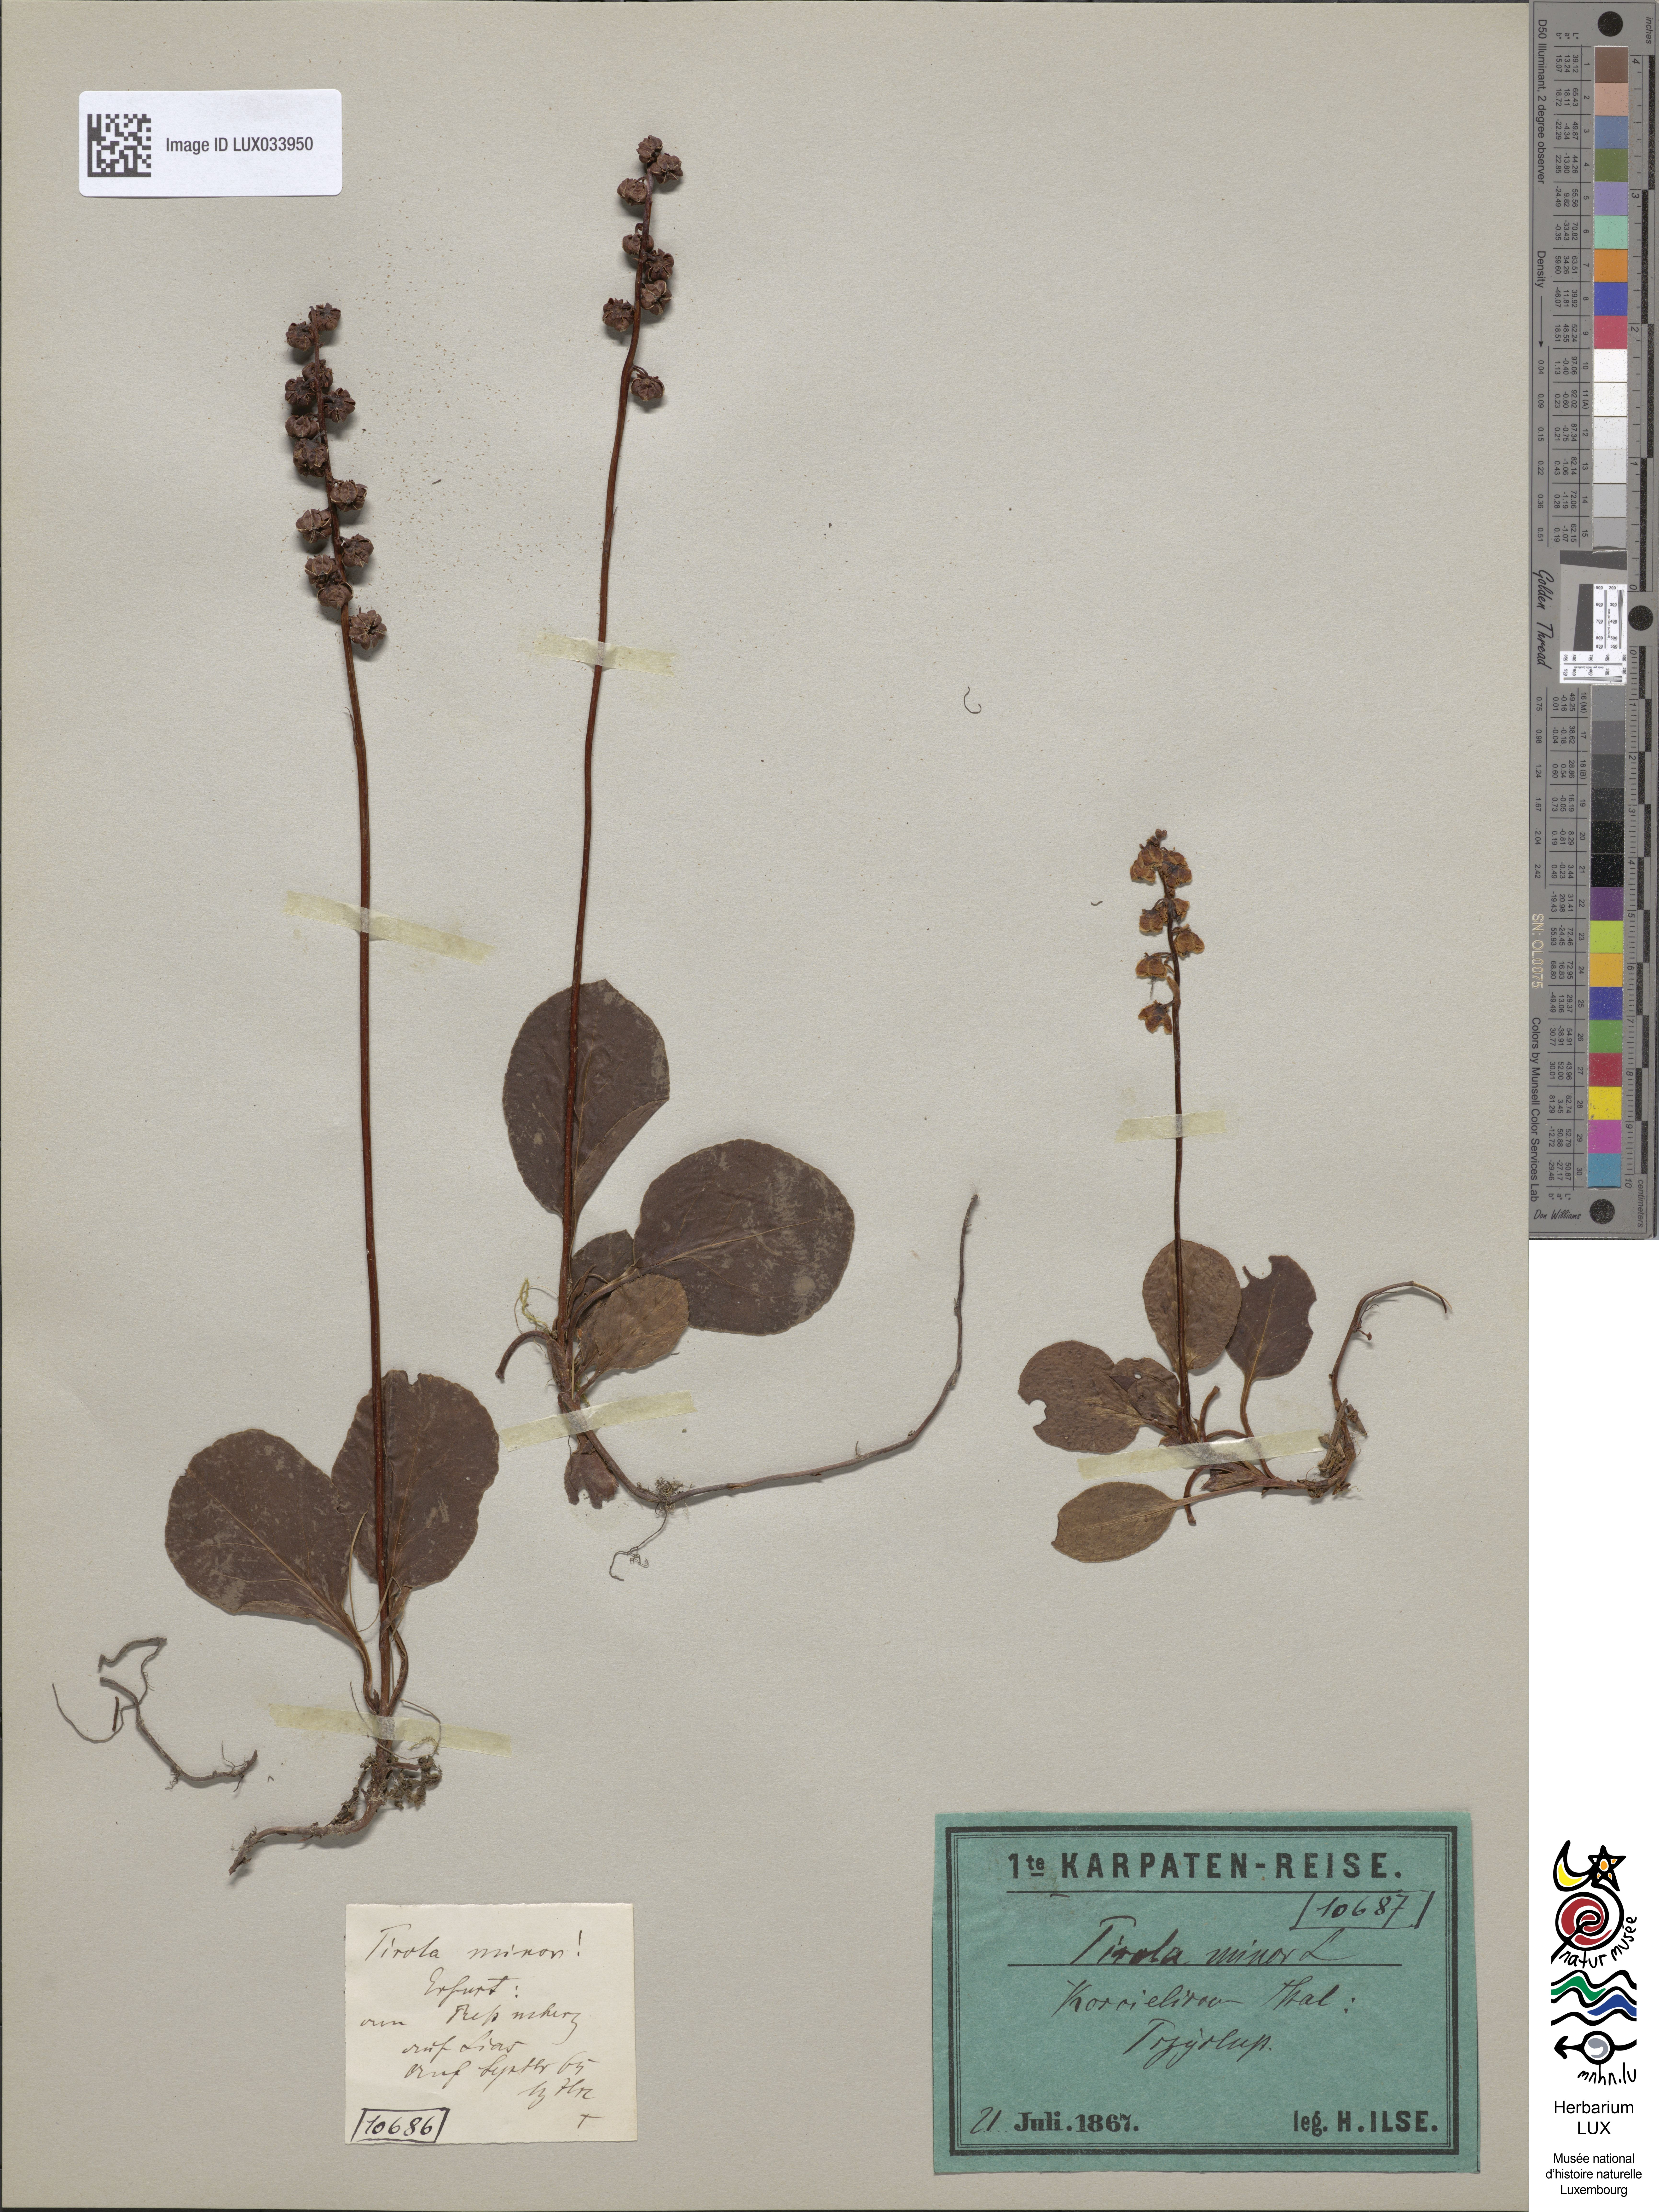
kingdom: Plantae
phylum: Tracheophyta
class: Magnoliopsida
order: Ericales
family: Ericaceae
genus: Pyrola
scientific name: Pyrola minor
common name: Common wintergreen
